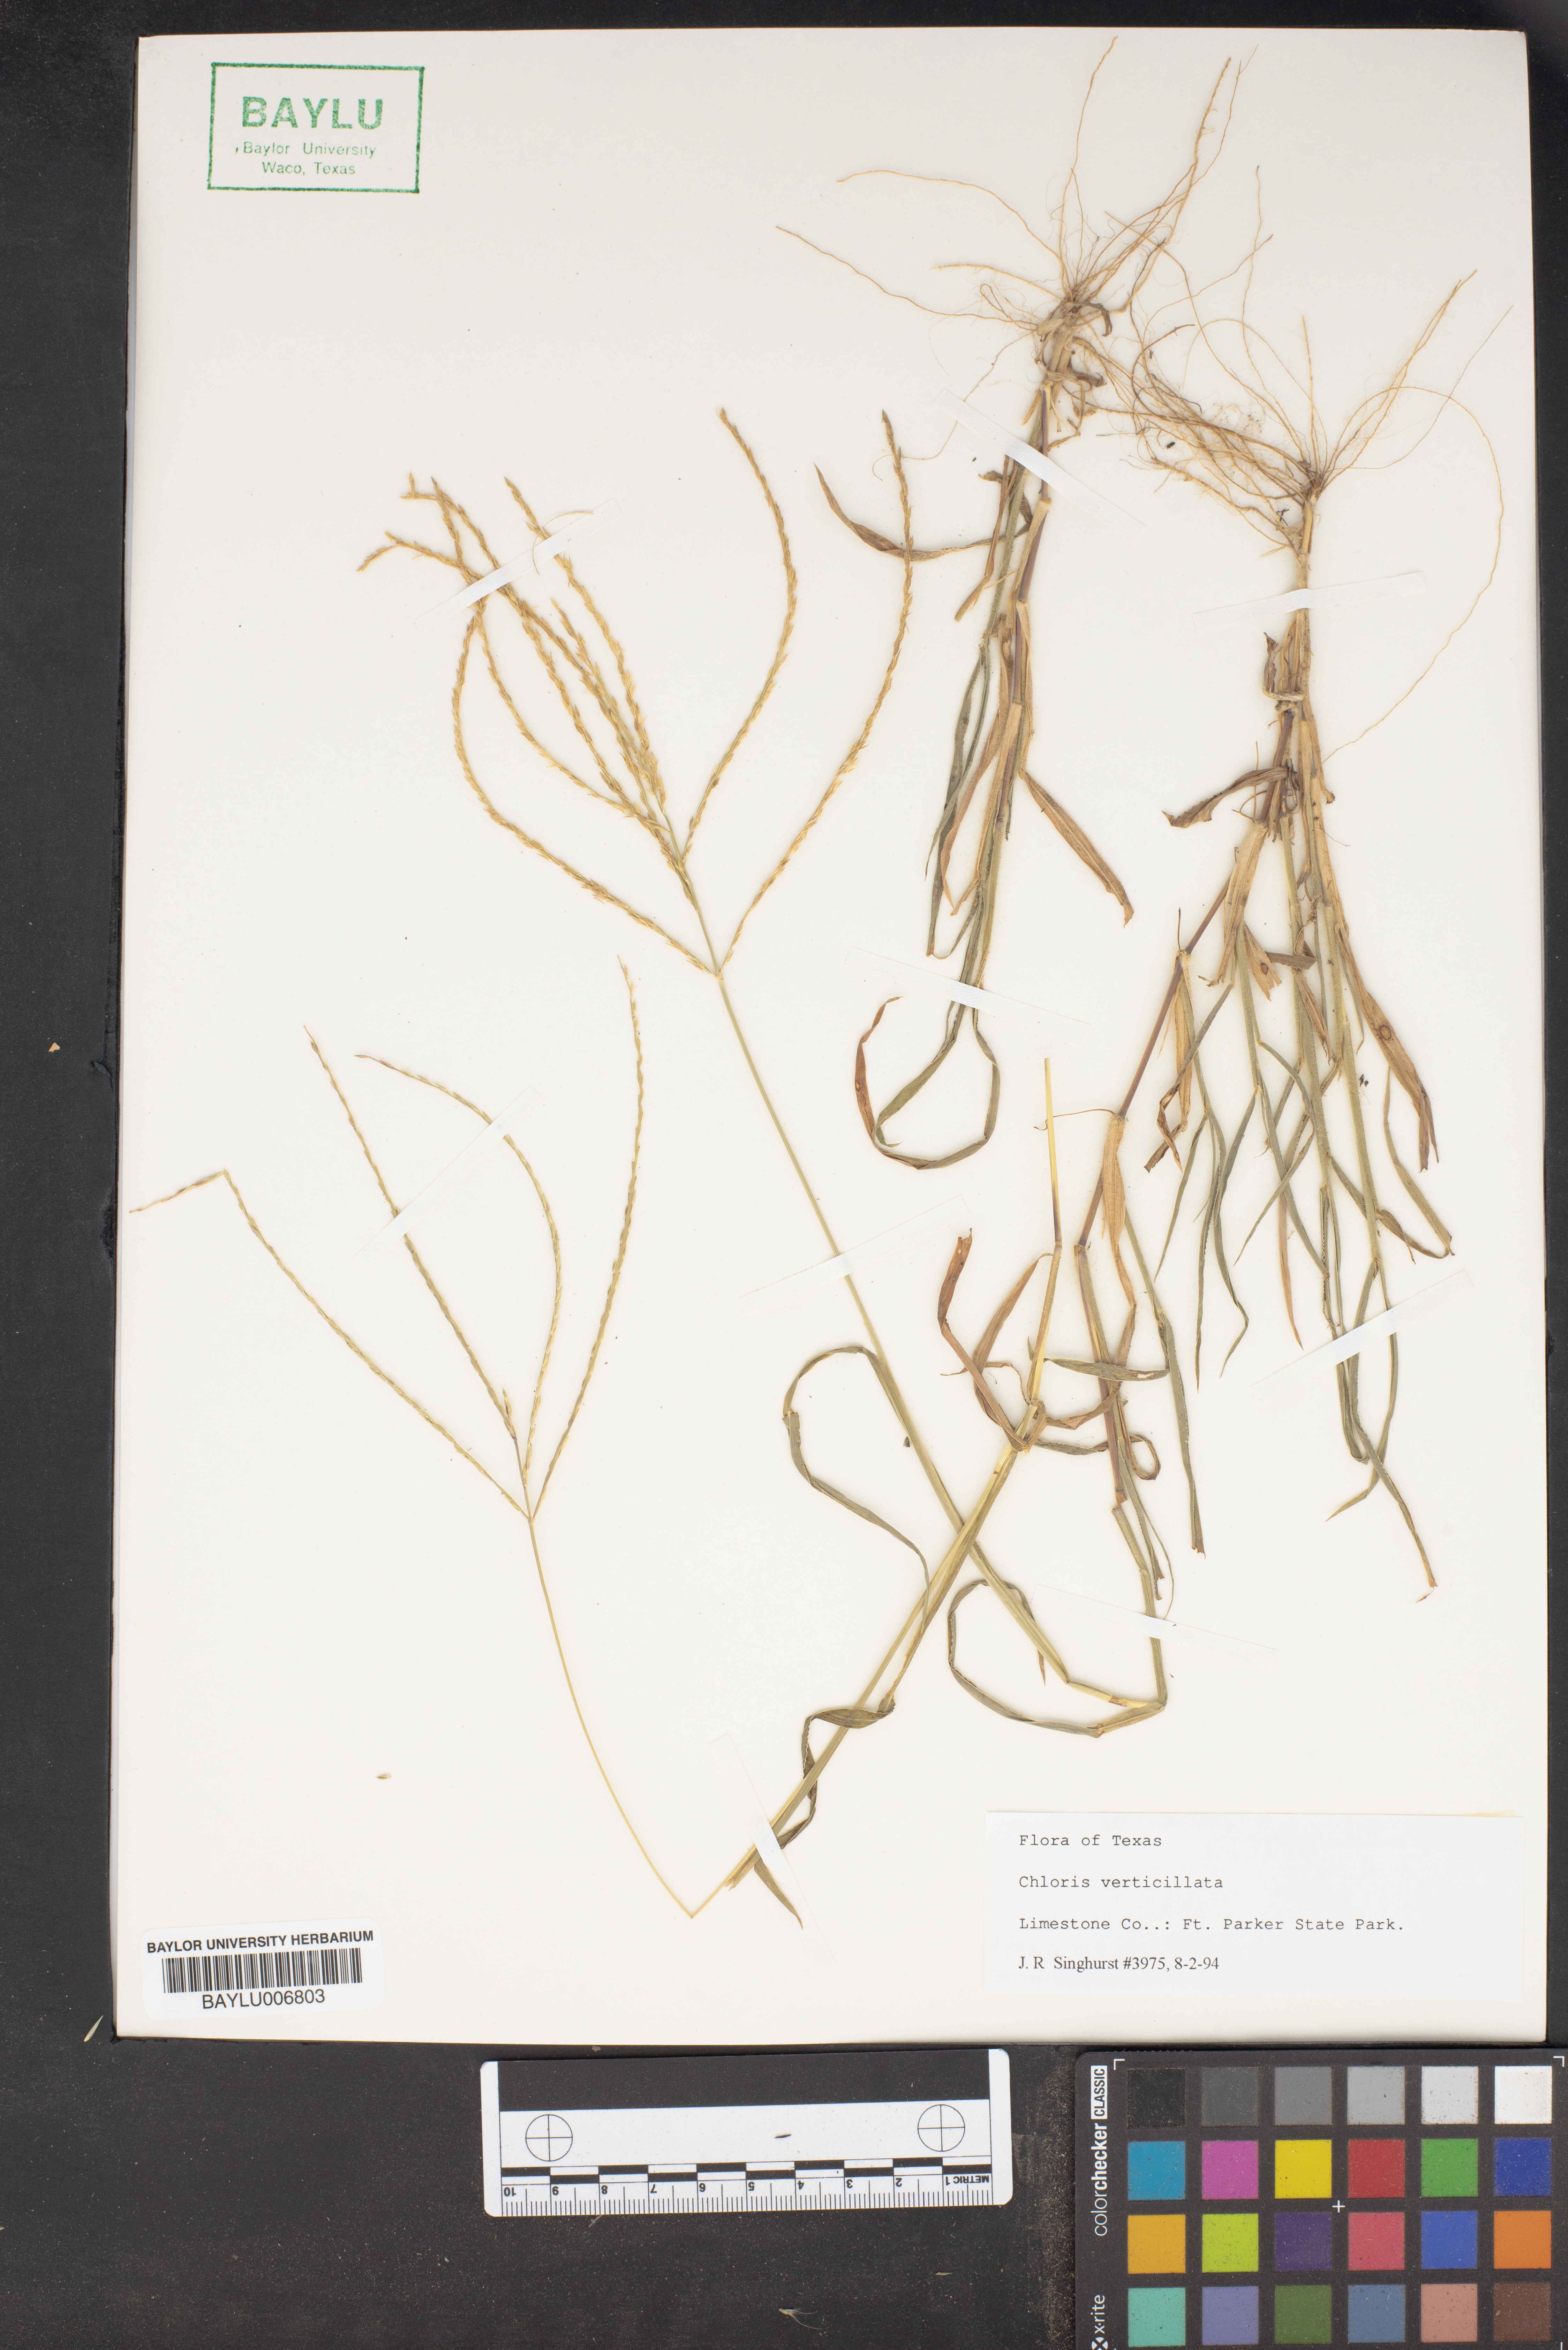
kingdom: Plantae
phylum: Tracheophyta
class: Liliopsida
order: Poales
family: Poaceae
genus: Chloris
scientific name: Chloris verticillata
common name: Tumble windmill grass
